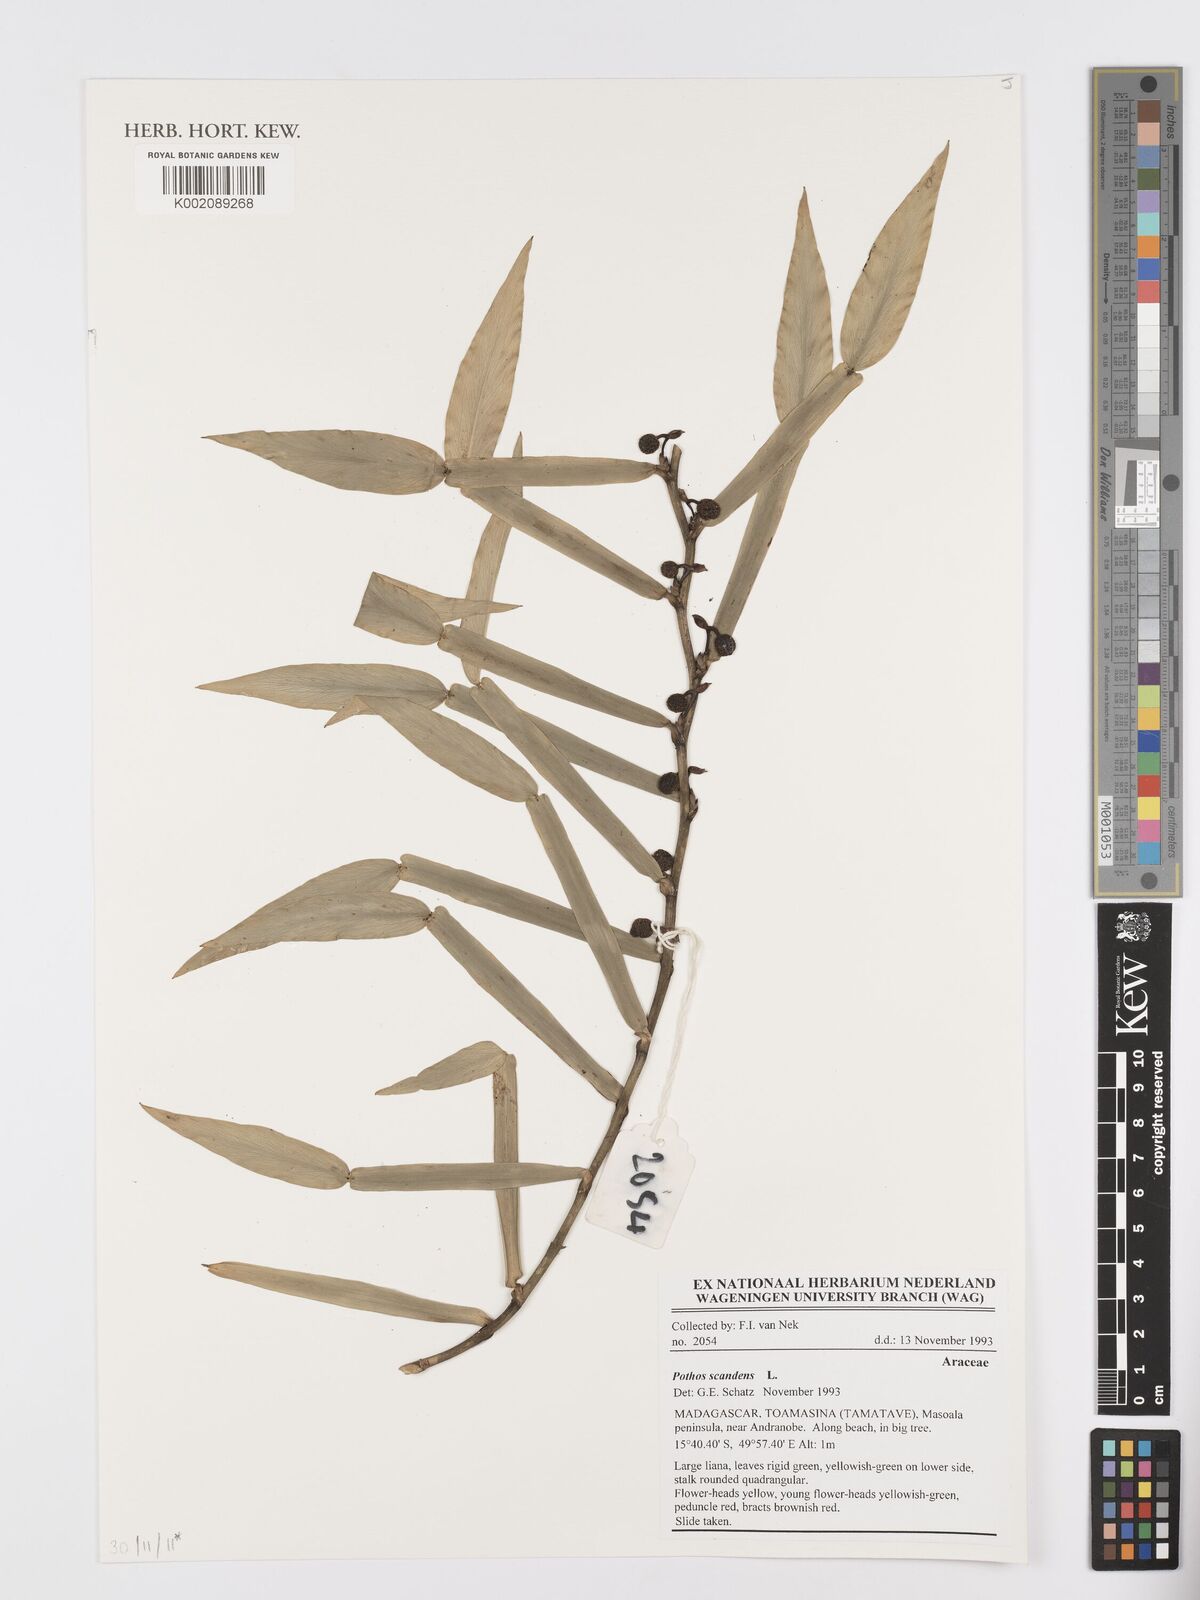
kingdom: Plantae
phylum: Tracheophyta
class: Liliopsida
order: Alismatales
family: Araceae
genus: Pothos
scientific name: Pothos scandens
